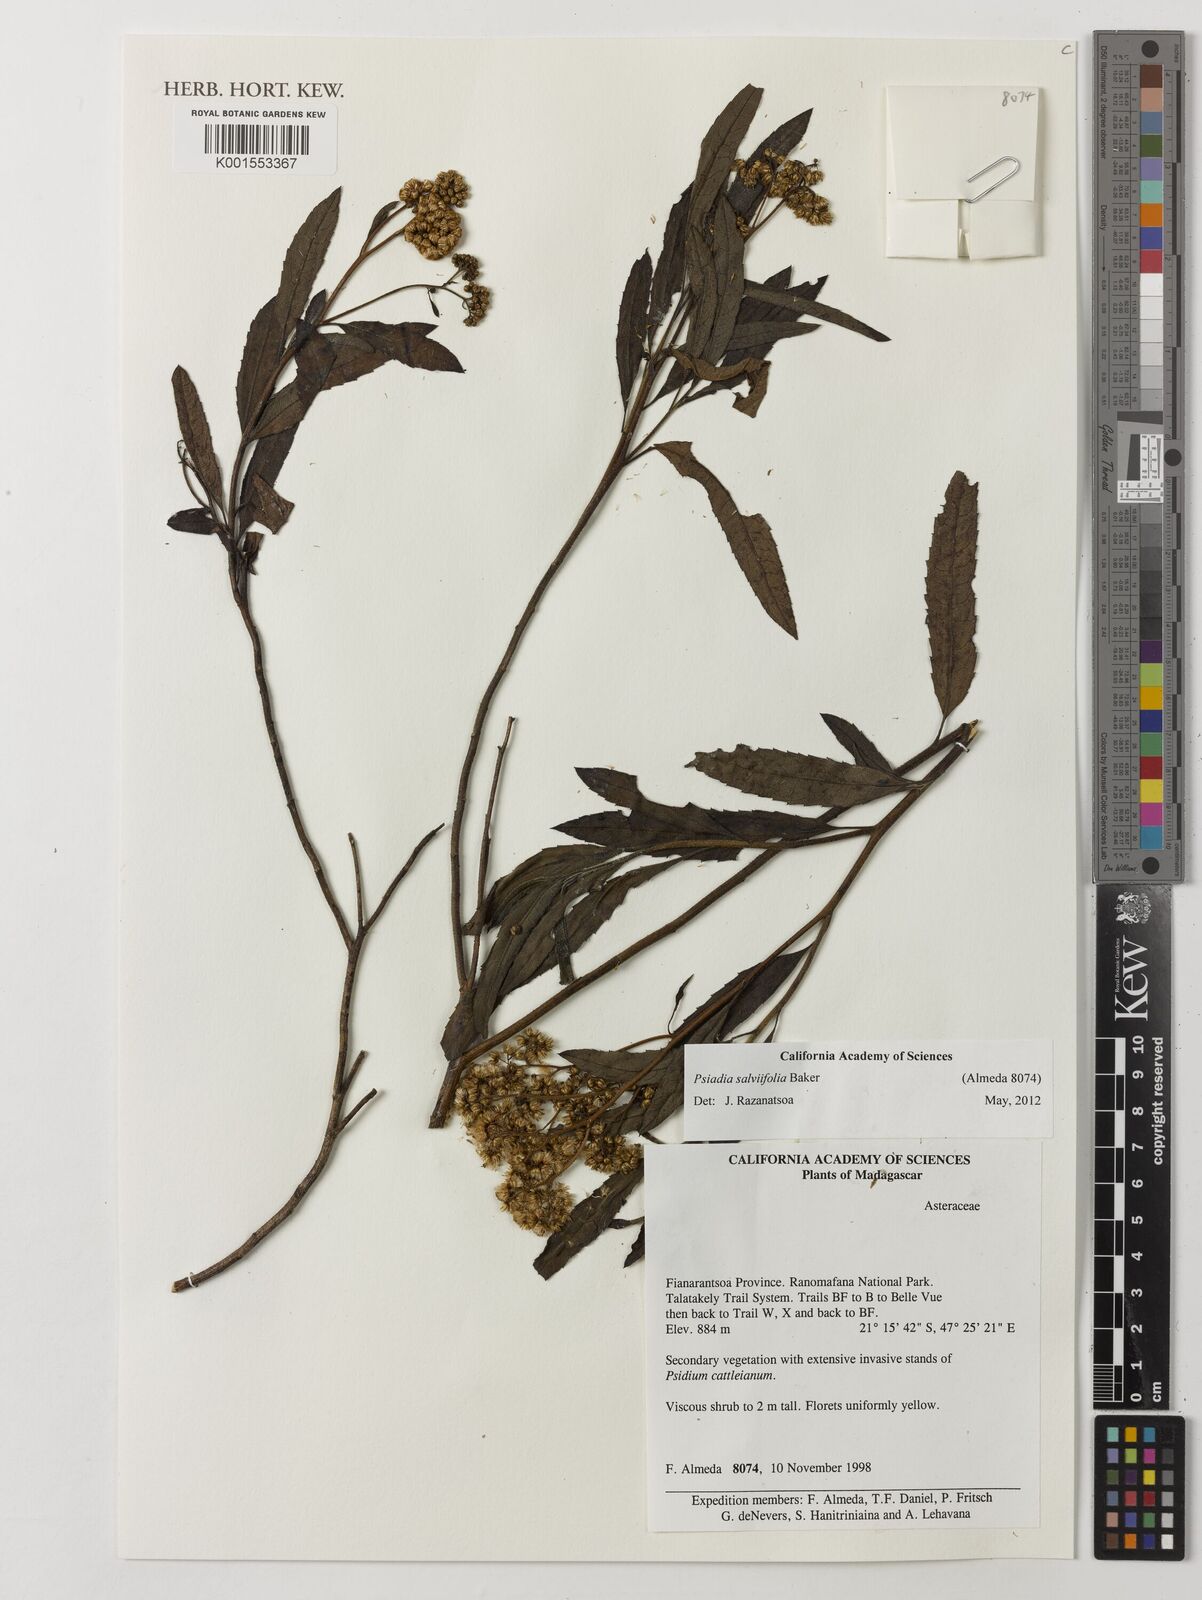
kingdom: Plantae
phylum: Tracheophyta
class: Magnoliopsida
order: Asterales
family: Asteraceae
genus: Psiadia
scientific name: Psiadia salviifolia
